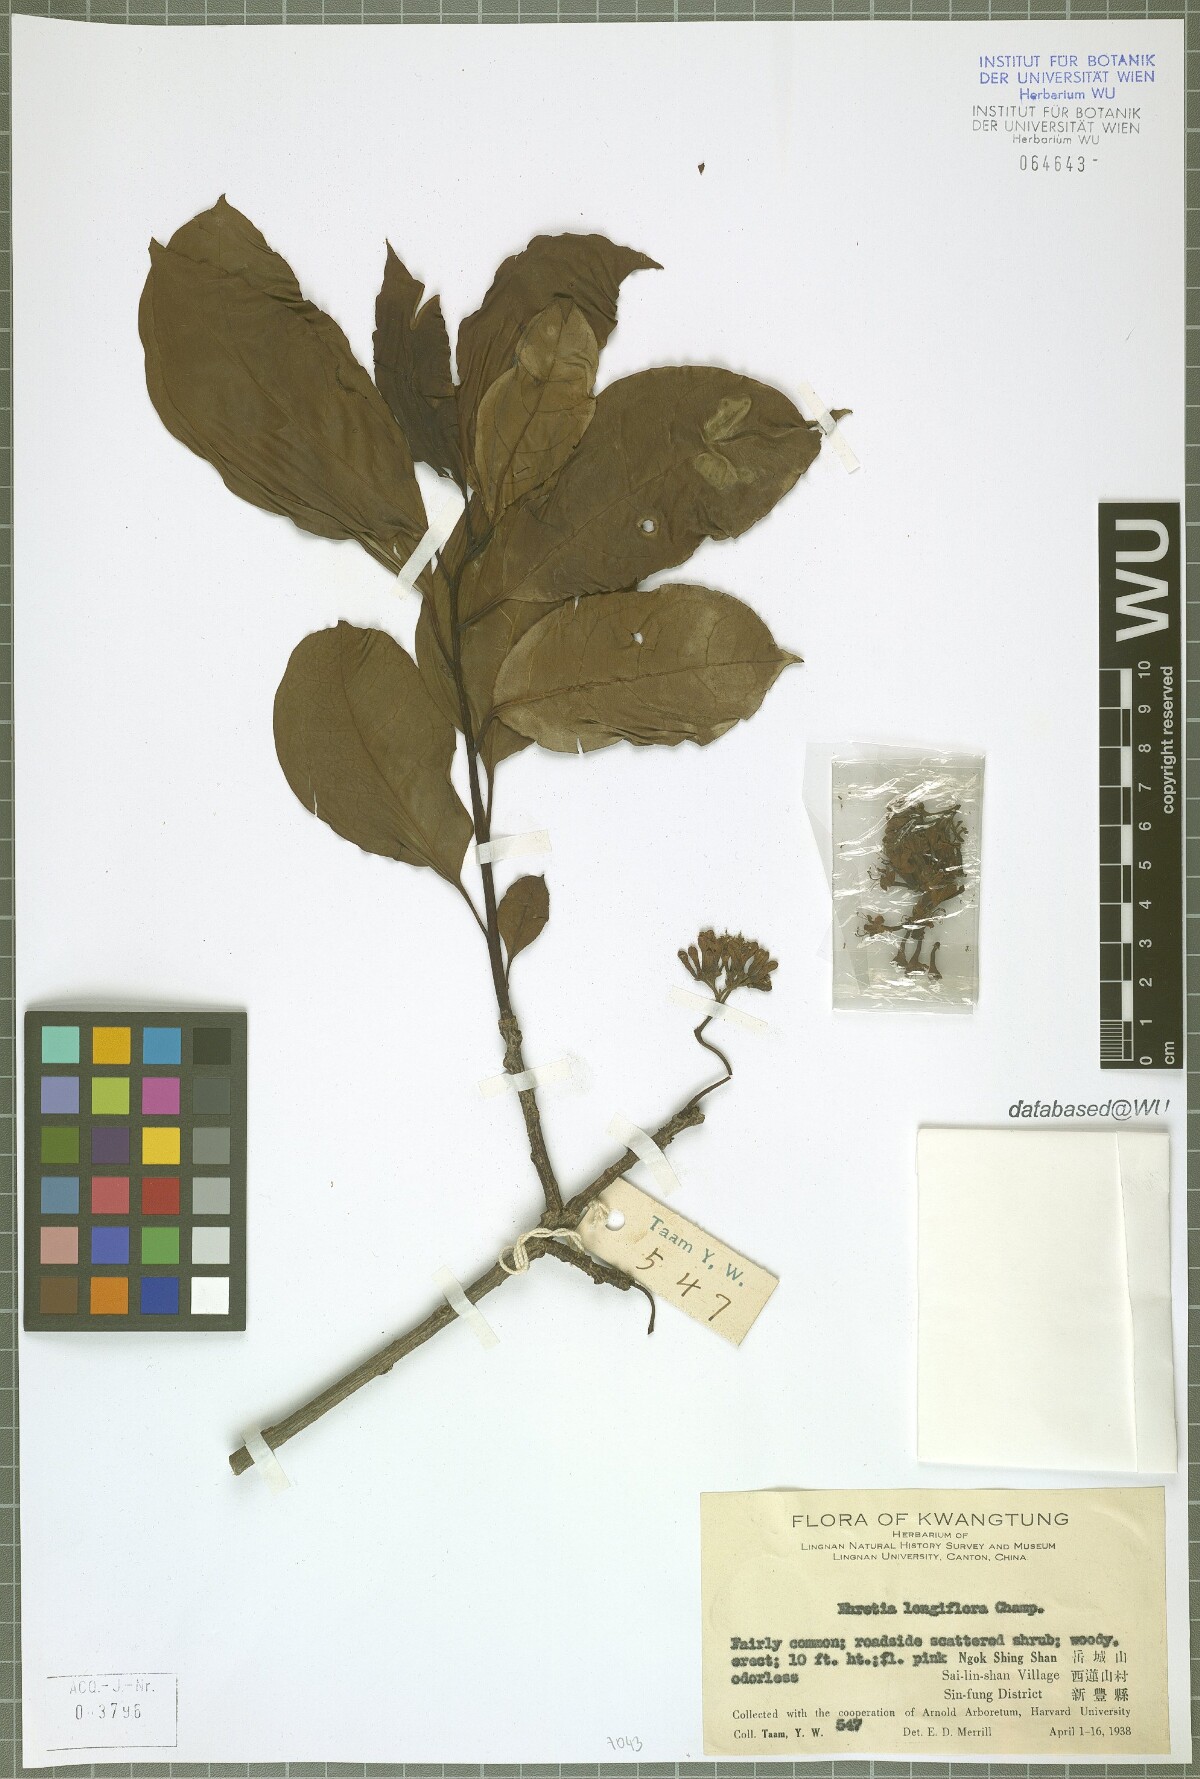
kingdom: Plantae
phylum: Tracheophyta
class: Magnoliopsida
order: Boraginales
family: Ehretiaceae
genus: Ehretia
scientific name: Ehretia longiflora
